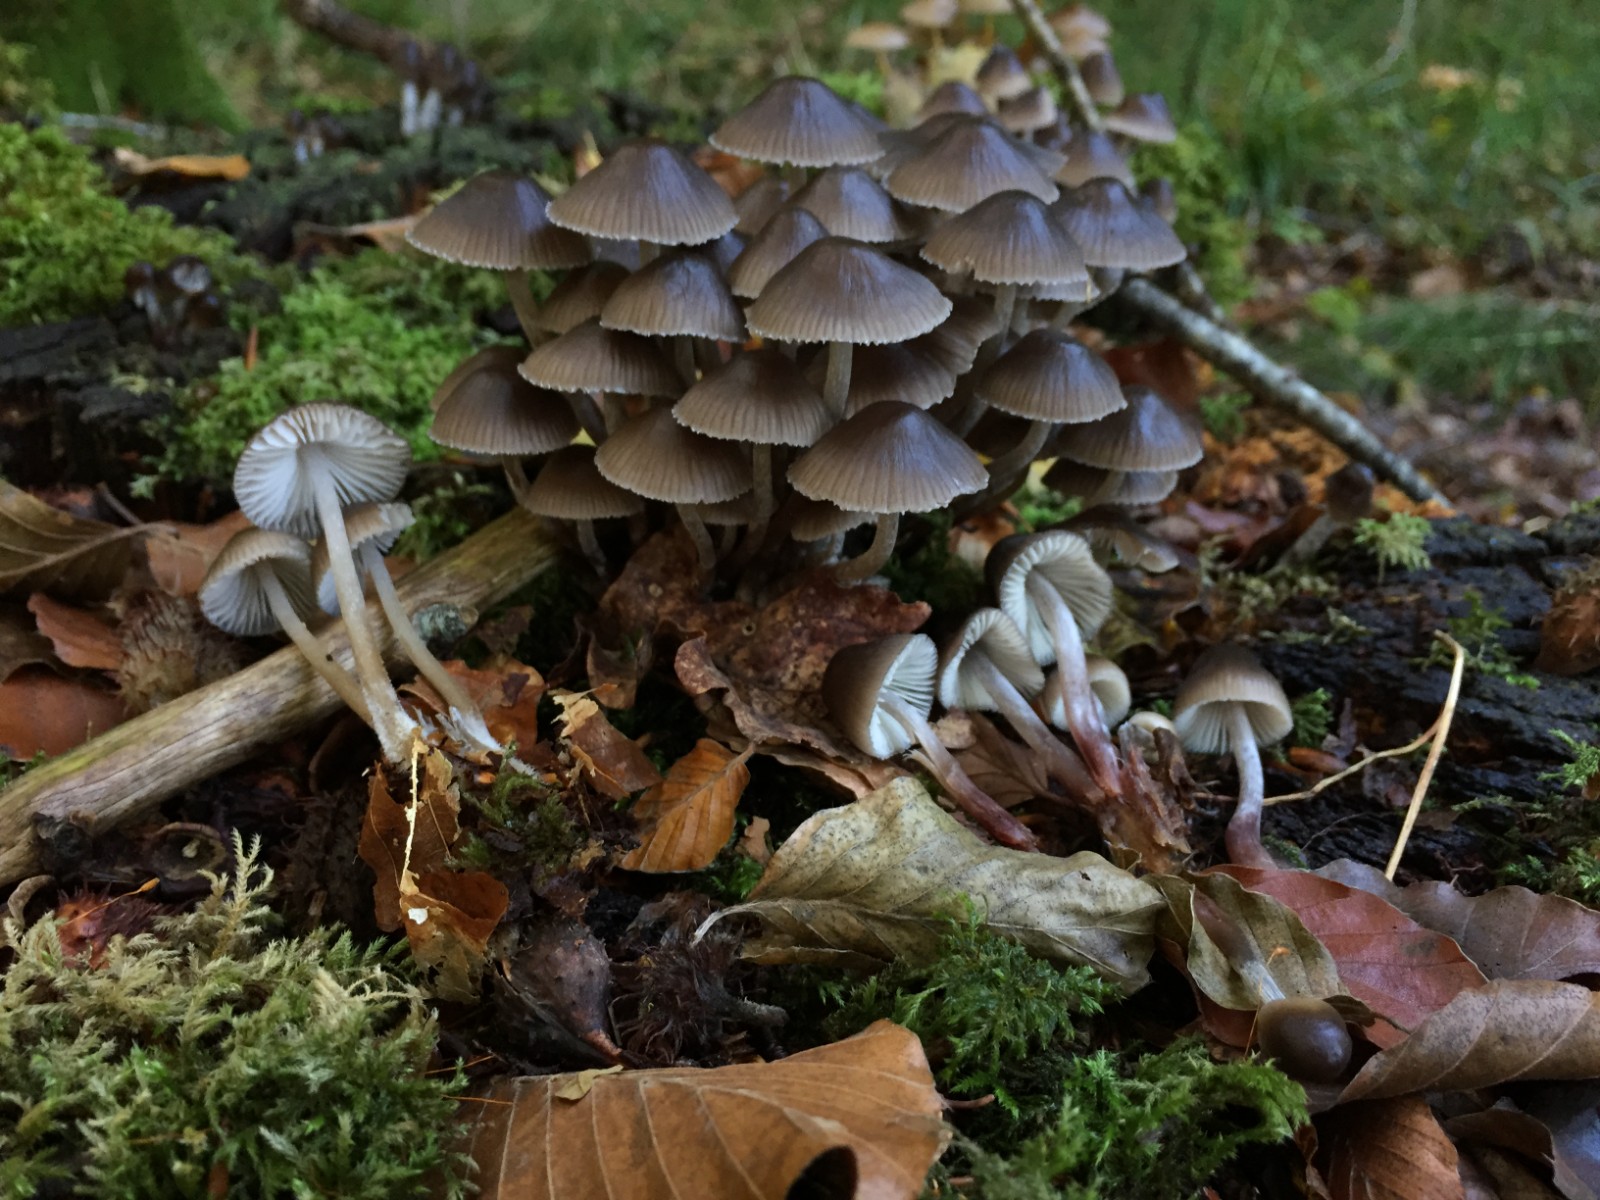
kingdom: Fungi
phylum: Basidiomycota
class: Agaricomycetes
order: Agaricales
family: Mycenaceae
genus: Mycena
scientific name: Mycena inclinata
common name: nikkende huesvamp
